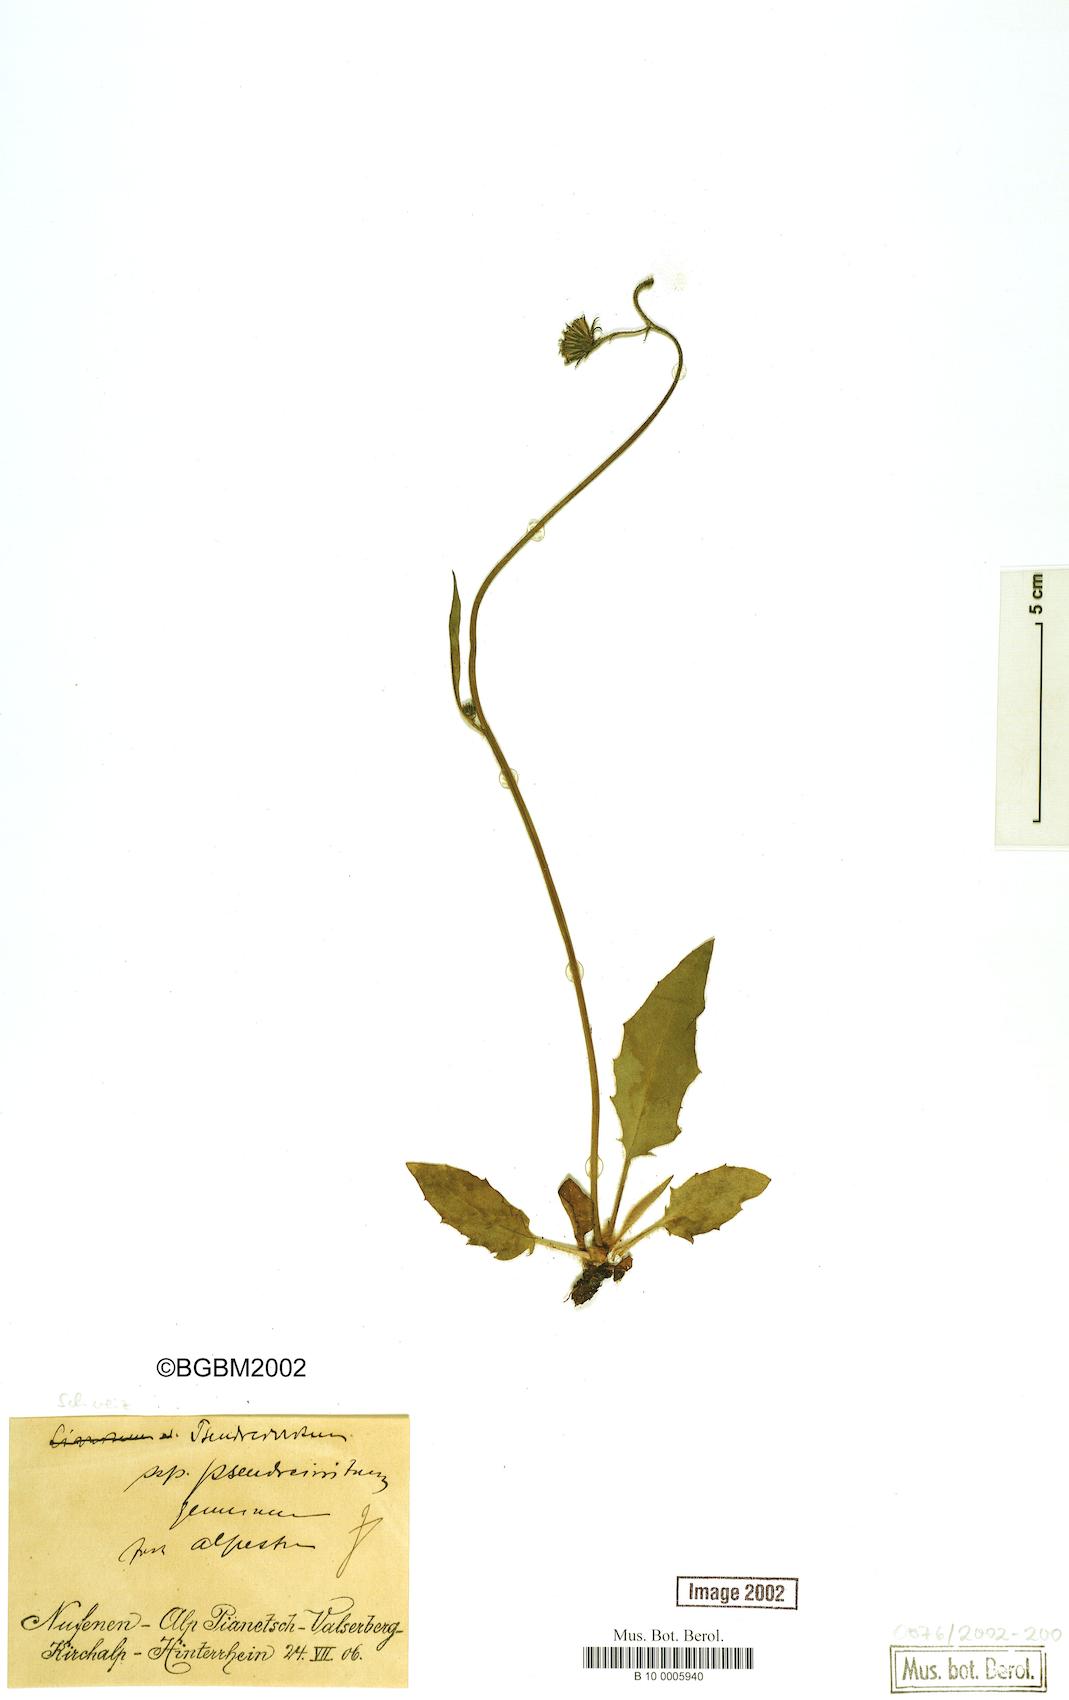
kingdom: Plantae
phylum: Tracheophyta
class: Magnoliopsida
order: Asterales
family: Asteraceae
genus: Hieracium
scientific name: Hieracium cirritum
